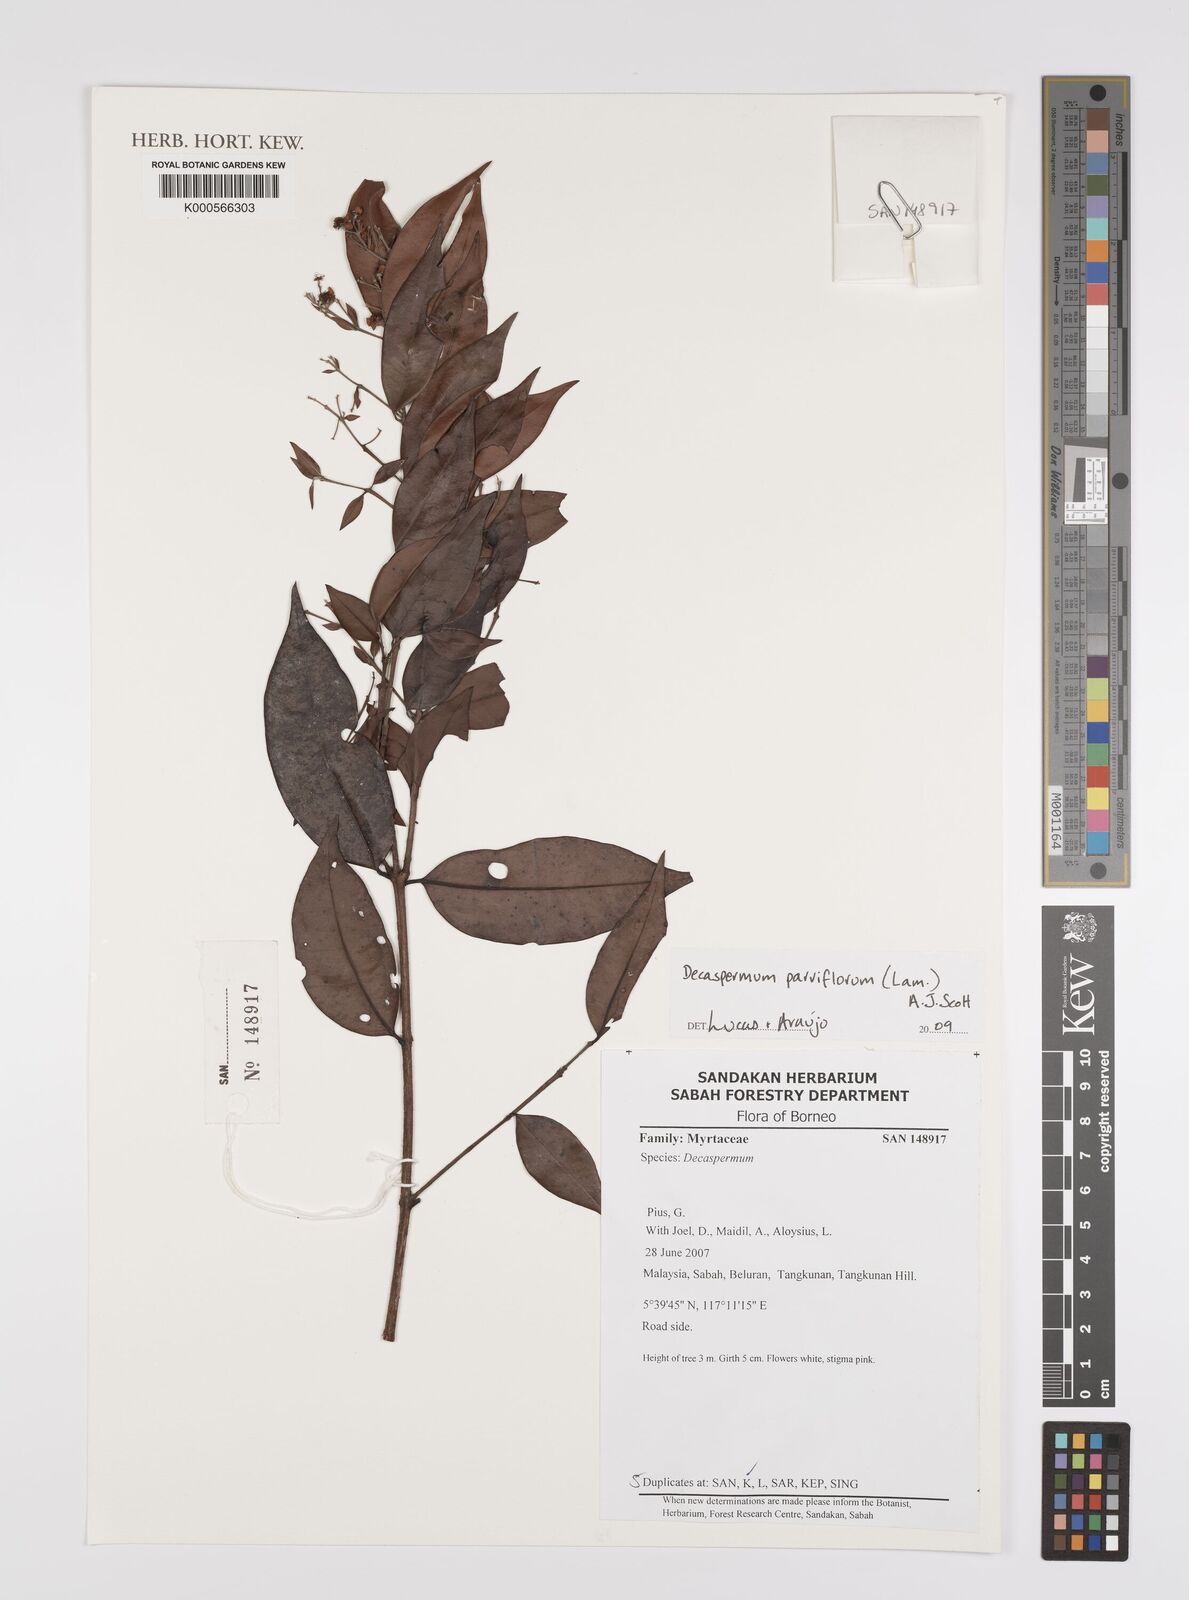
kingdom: Plantae
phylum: Tracheophyta
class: Magnoliopsida
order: Myrtales
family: Myrtaceae
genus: Decaspermum
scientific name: Decaspermum parviflorum
